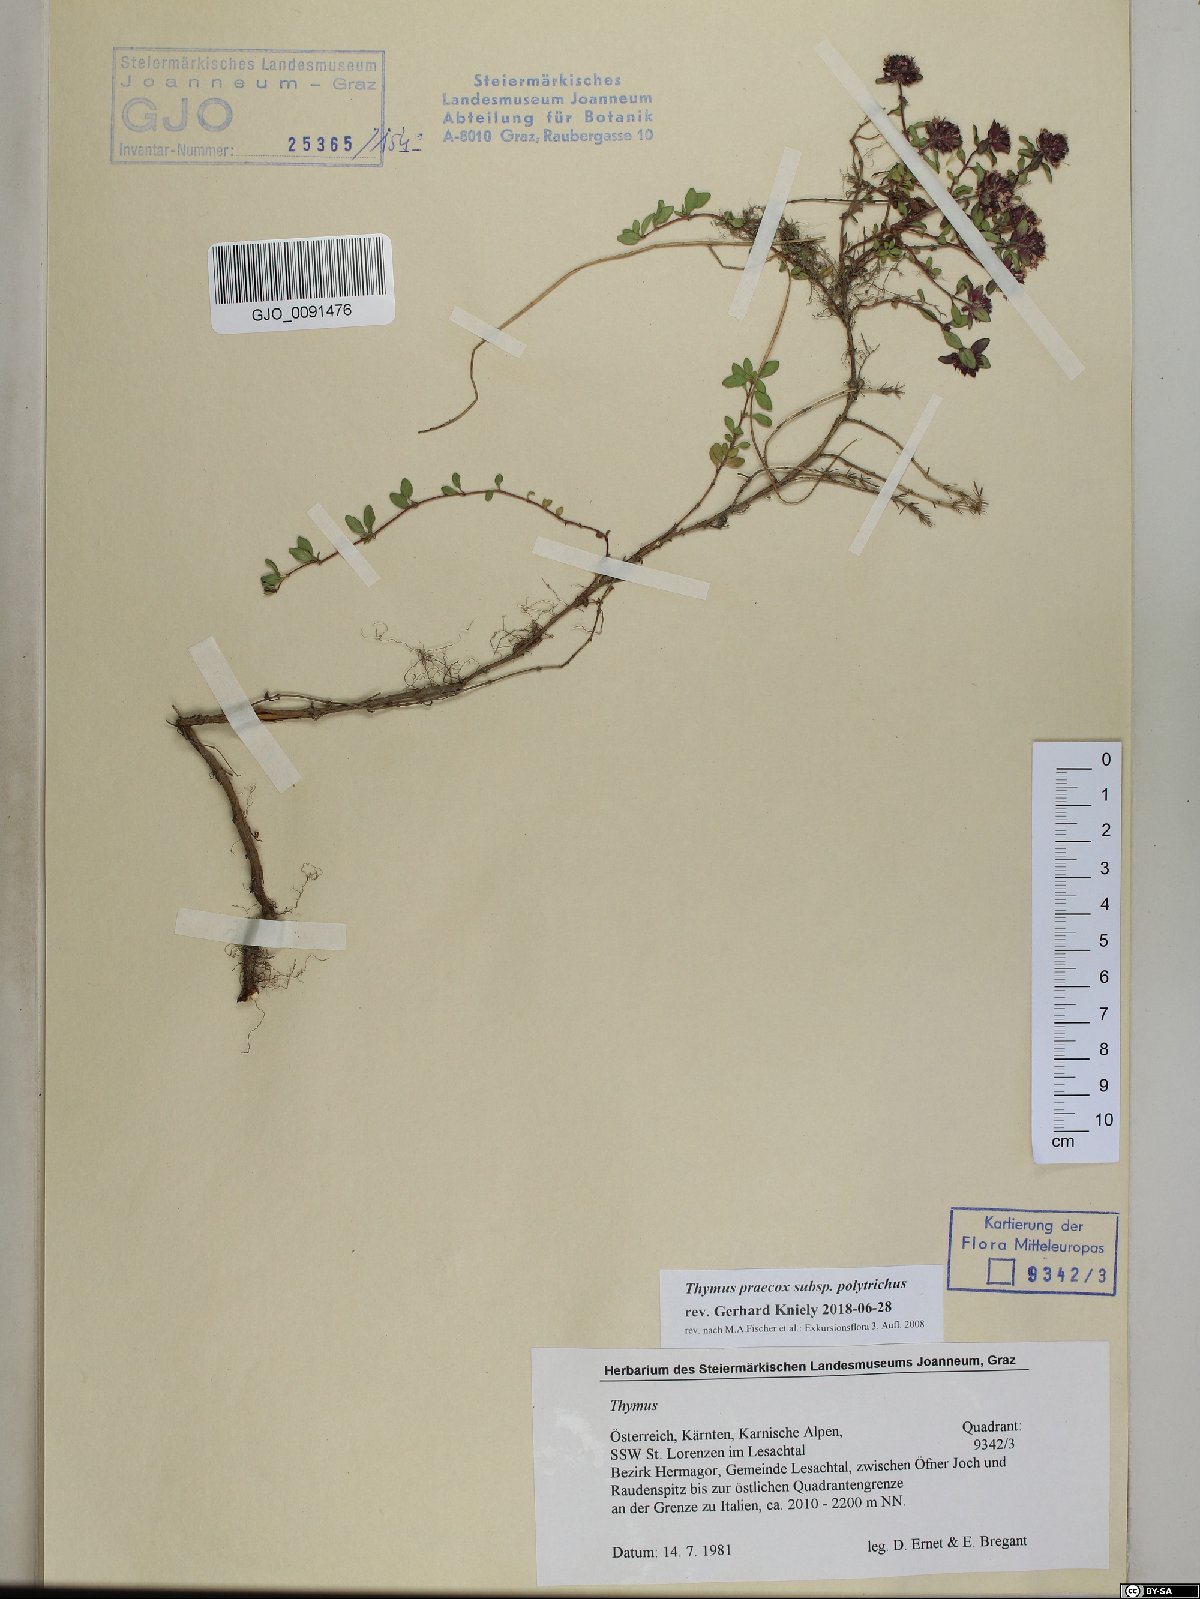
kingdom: Plantae
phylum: Tracheophyta
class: Magnoliopsida
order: Lamiales
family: Lamiaceae
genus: Thymus
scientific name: Thymus praecox
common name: Wild thyme
